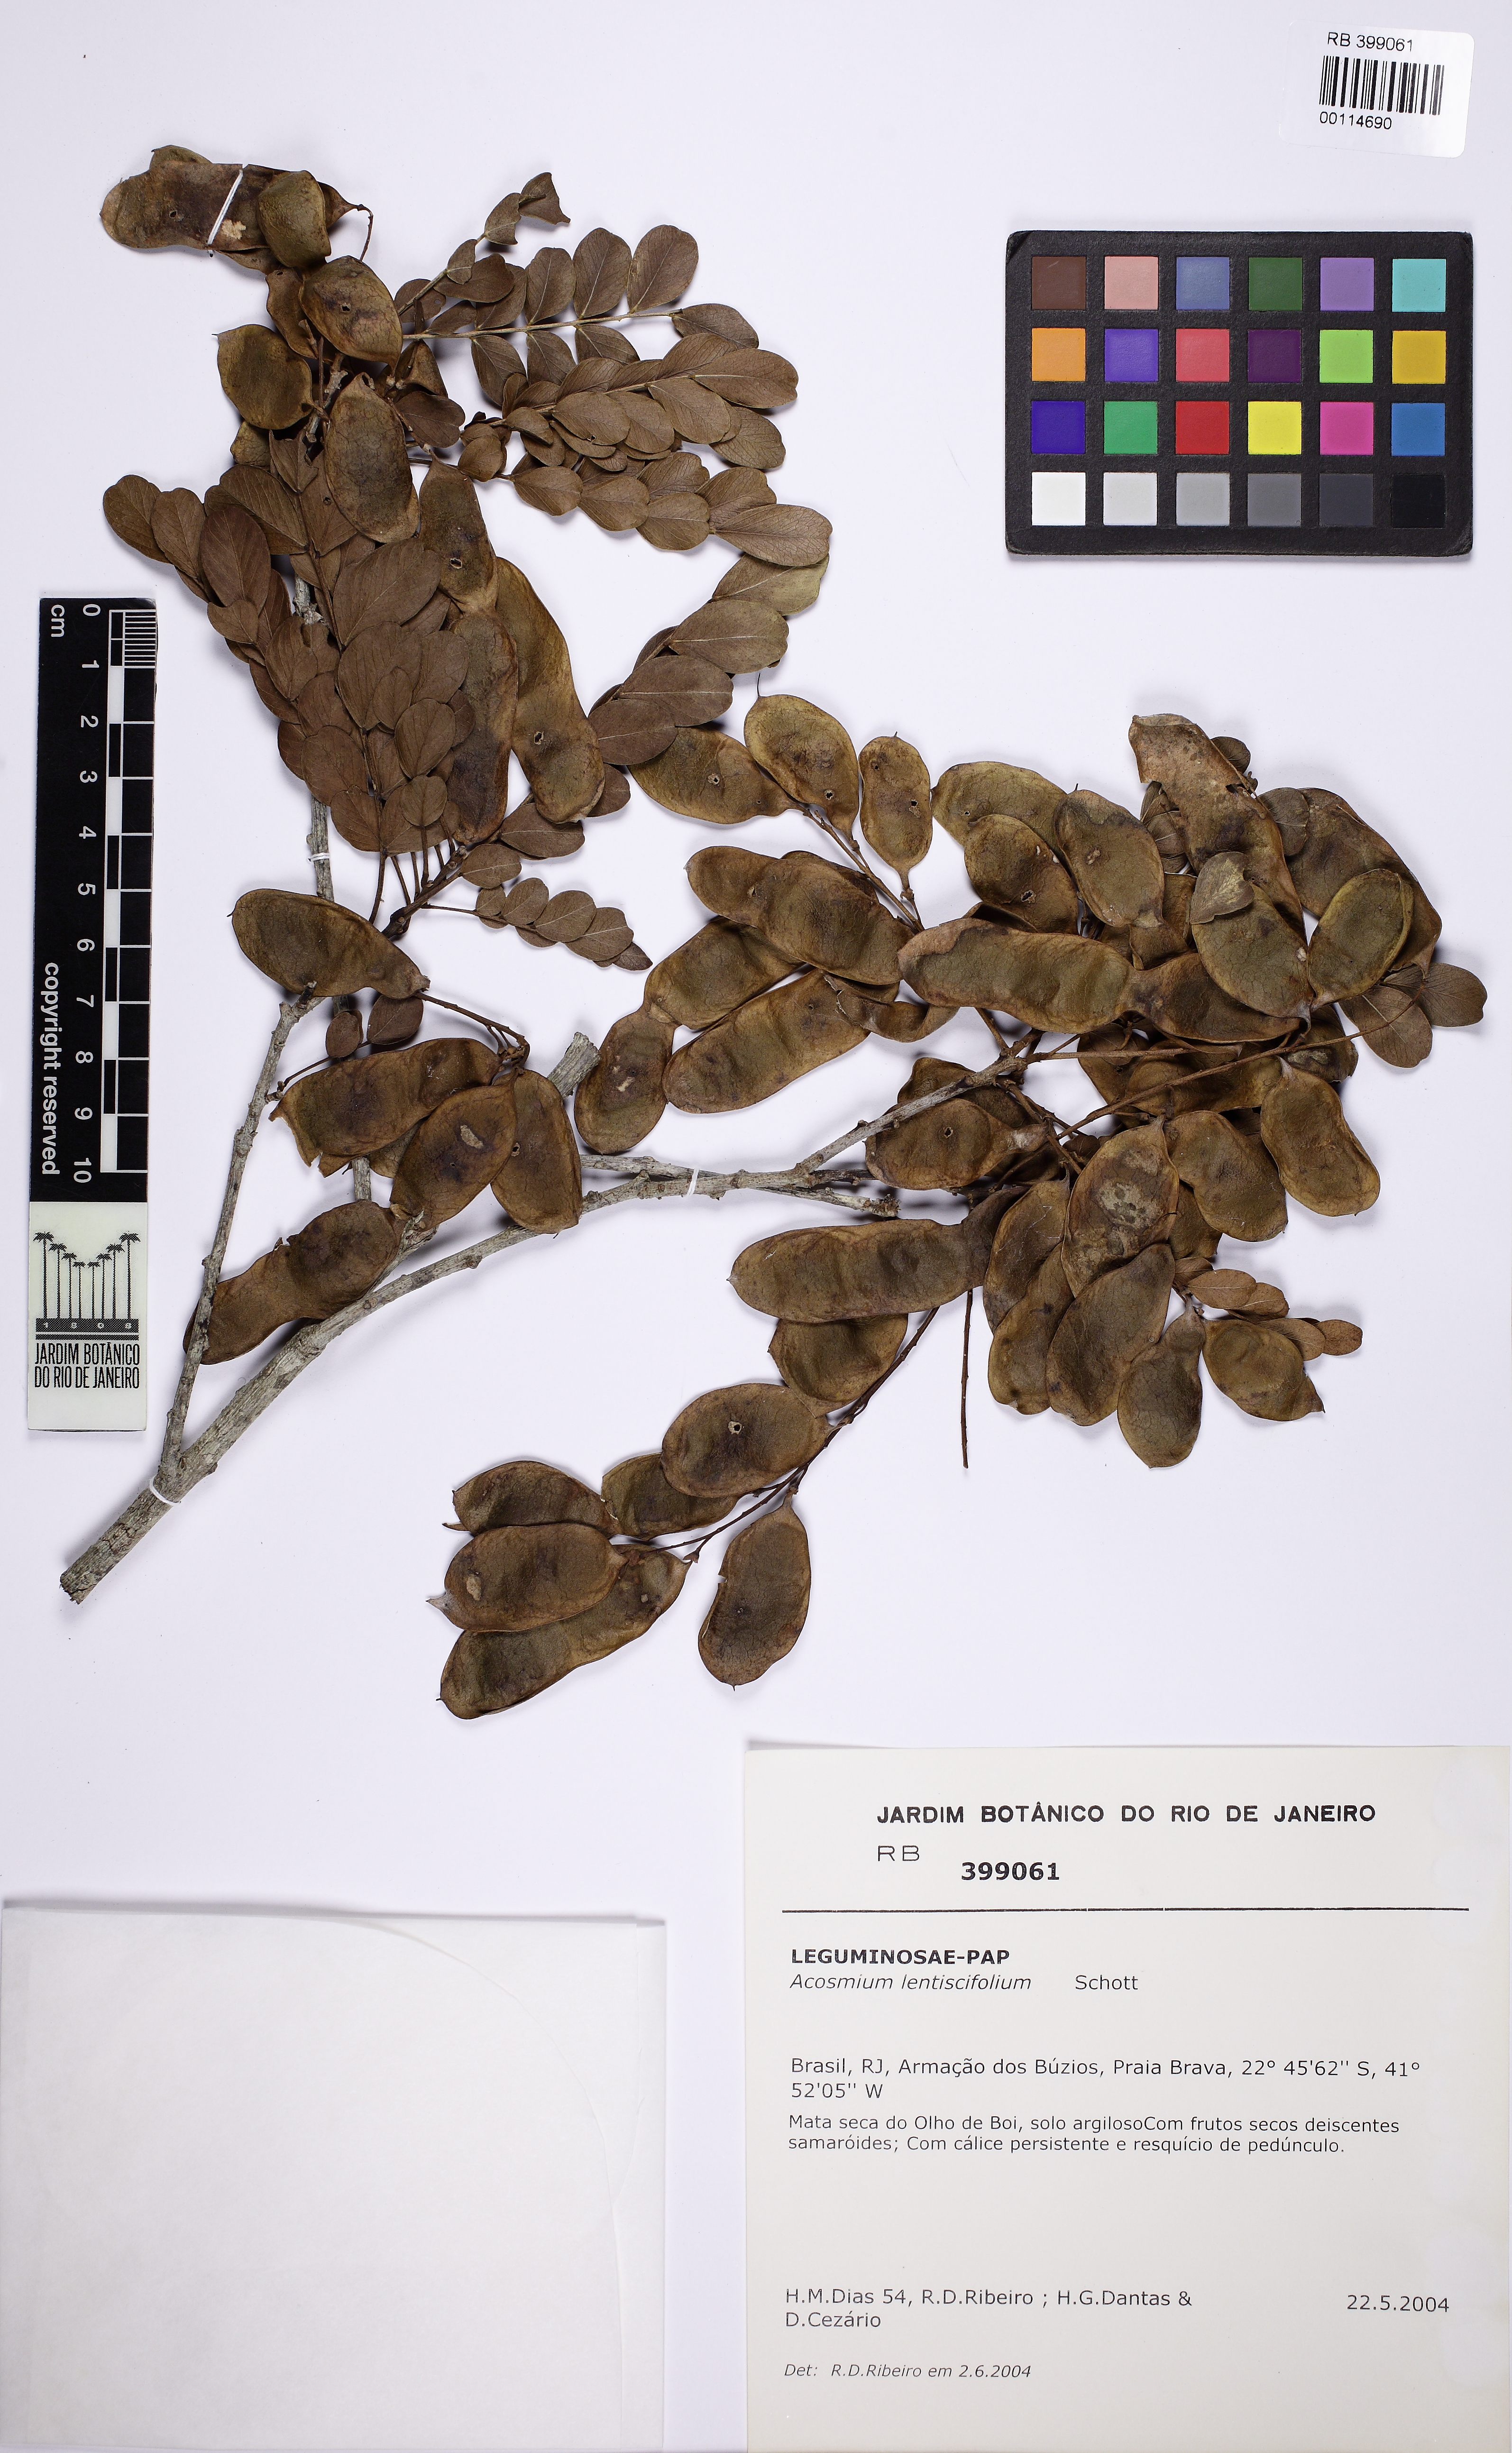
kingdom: Plantae
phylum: Tracheophyta
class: Magnoliopsida
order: Fabales
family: Fabaceae
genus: Acosmium
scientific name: Acosmium lentiscifolium
